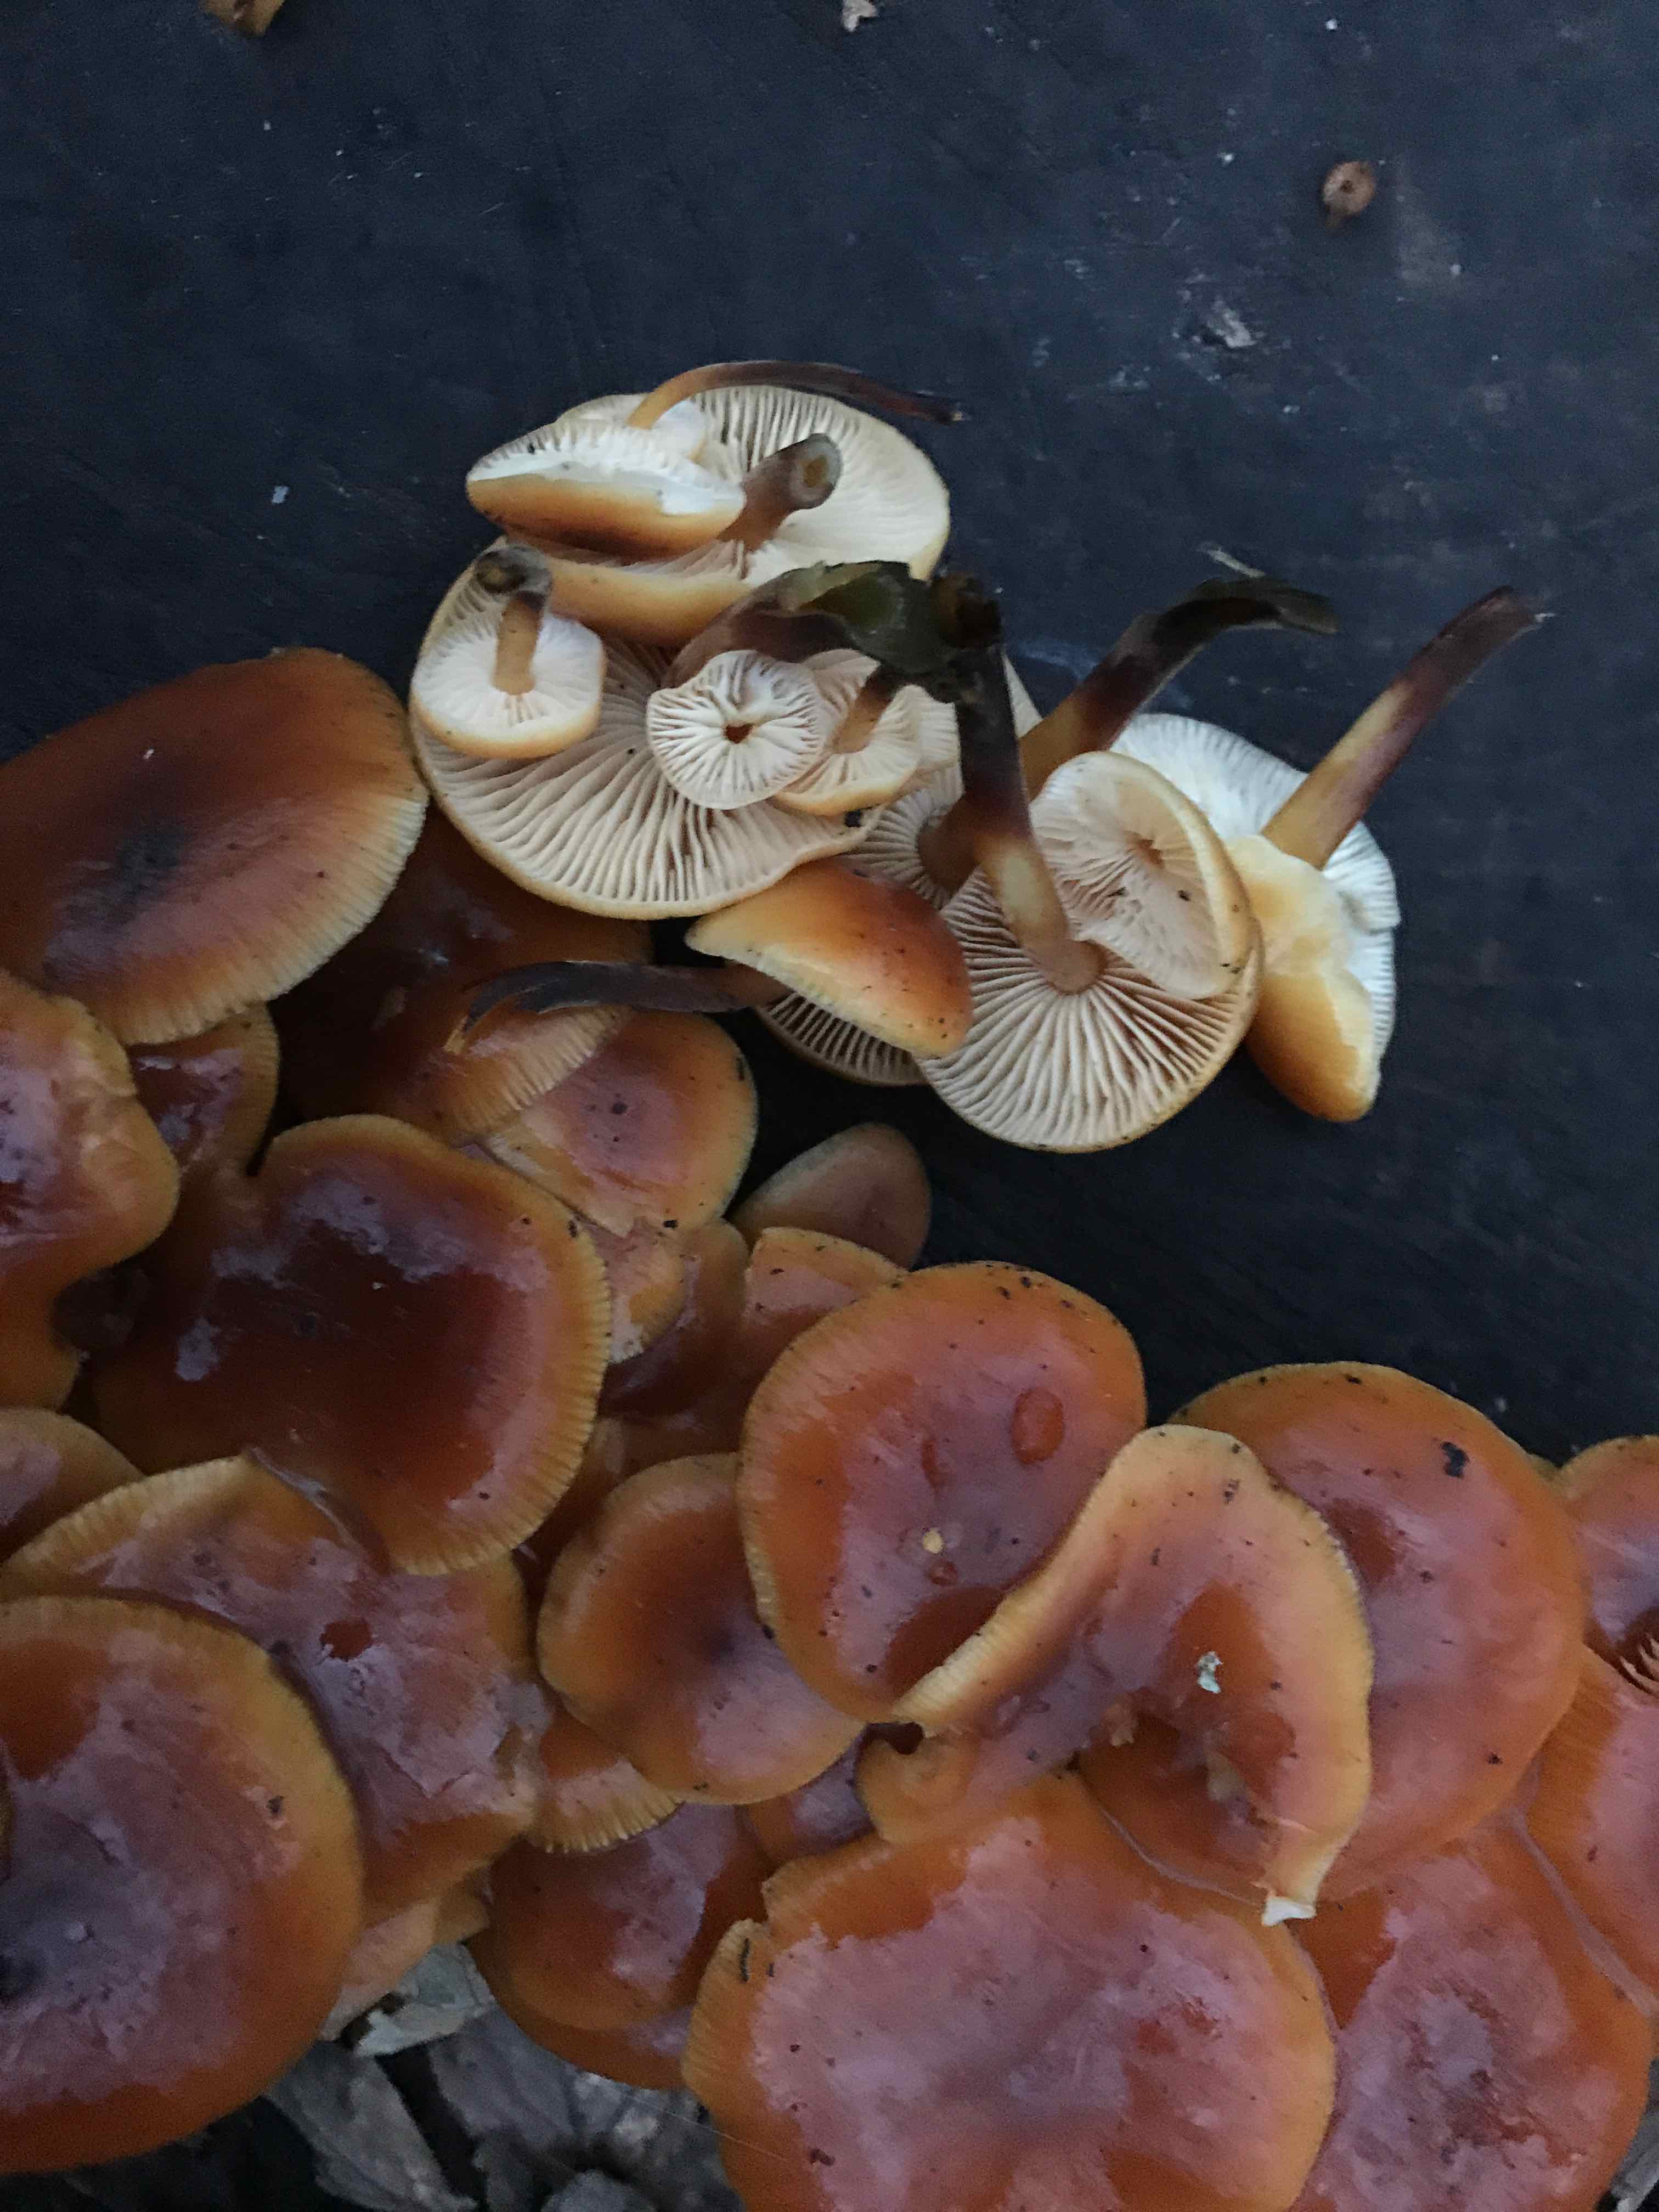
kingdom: Fungi
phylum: Basidiomycota
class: Agaricomycetes
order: Agaricales
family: Physalacriaceae
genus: Flammulina
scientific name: Flammulina velutipes
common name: gul fløjlsfod
